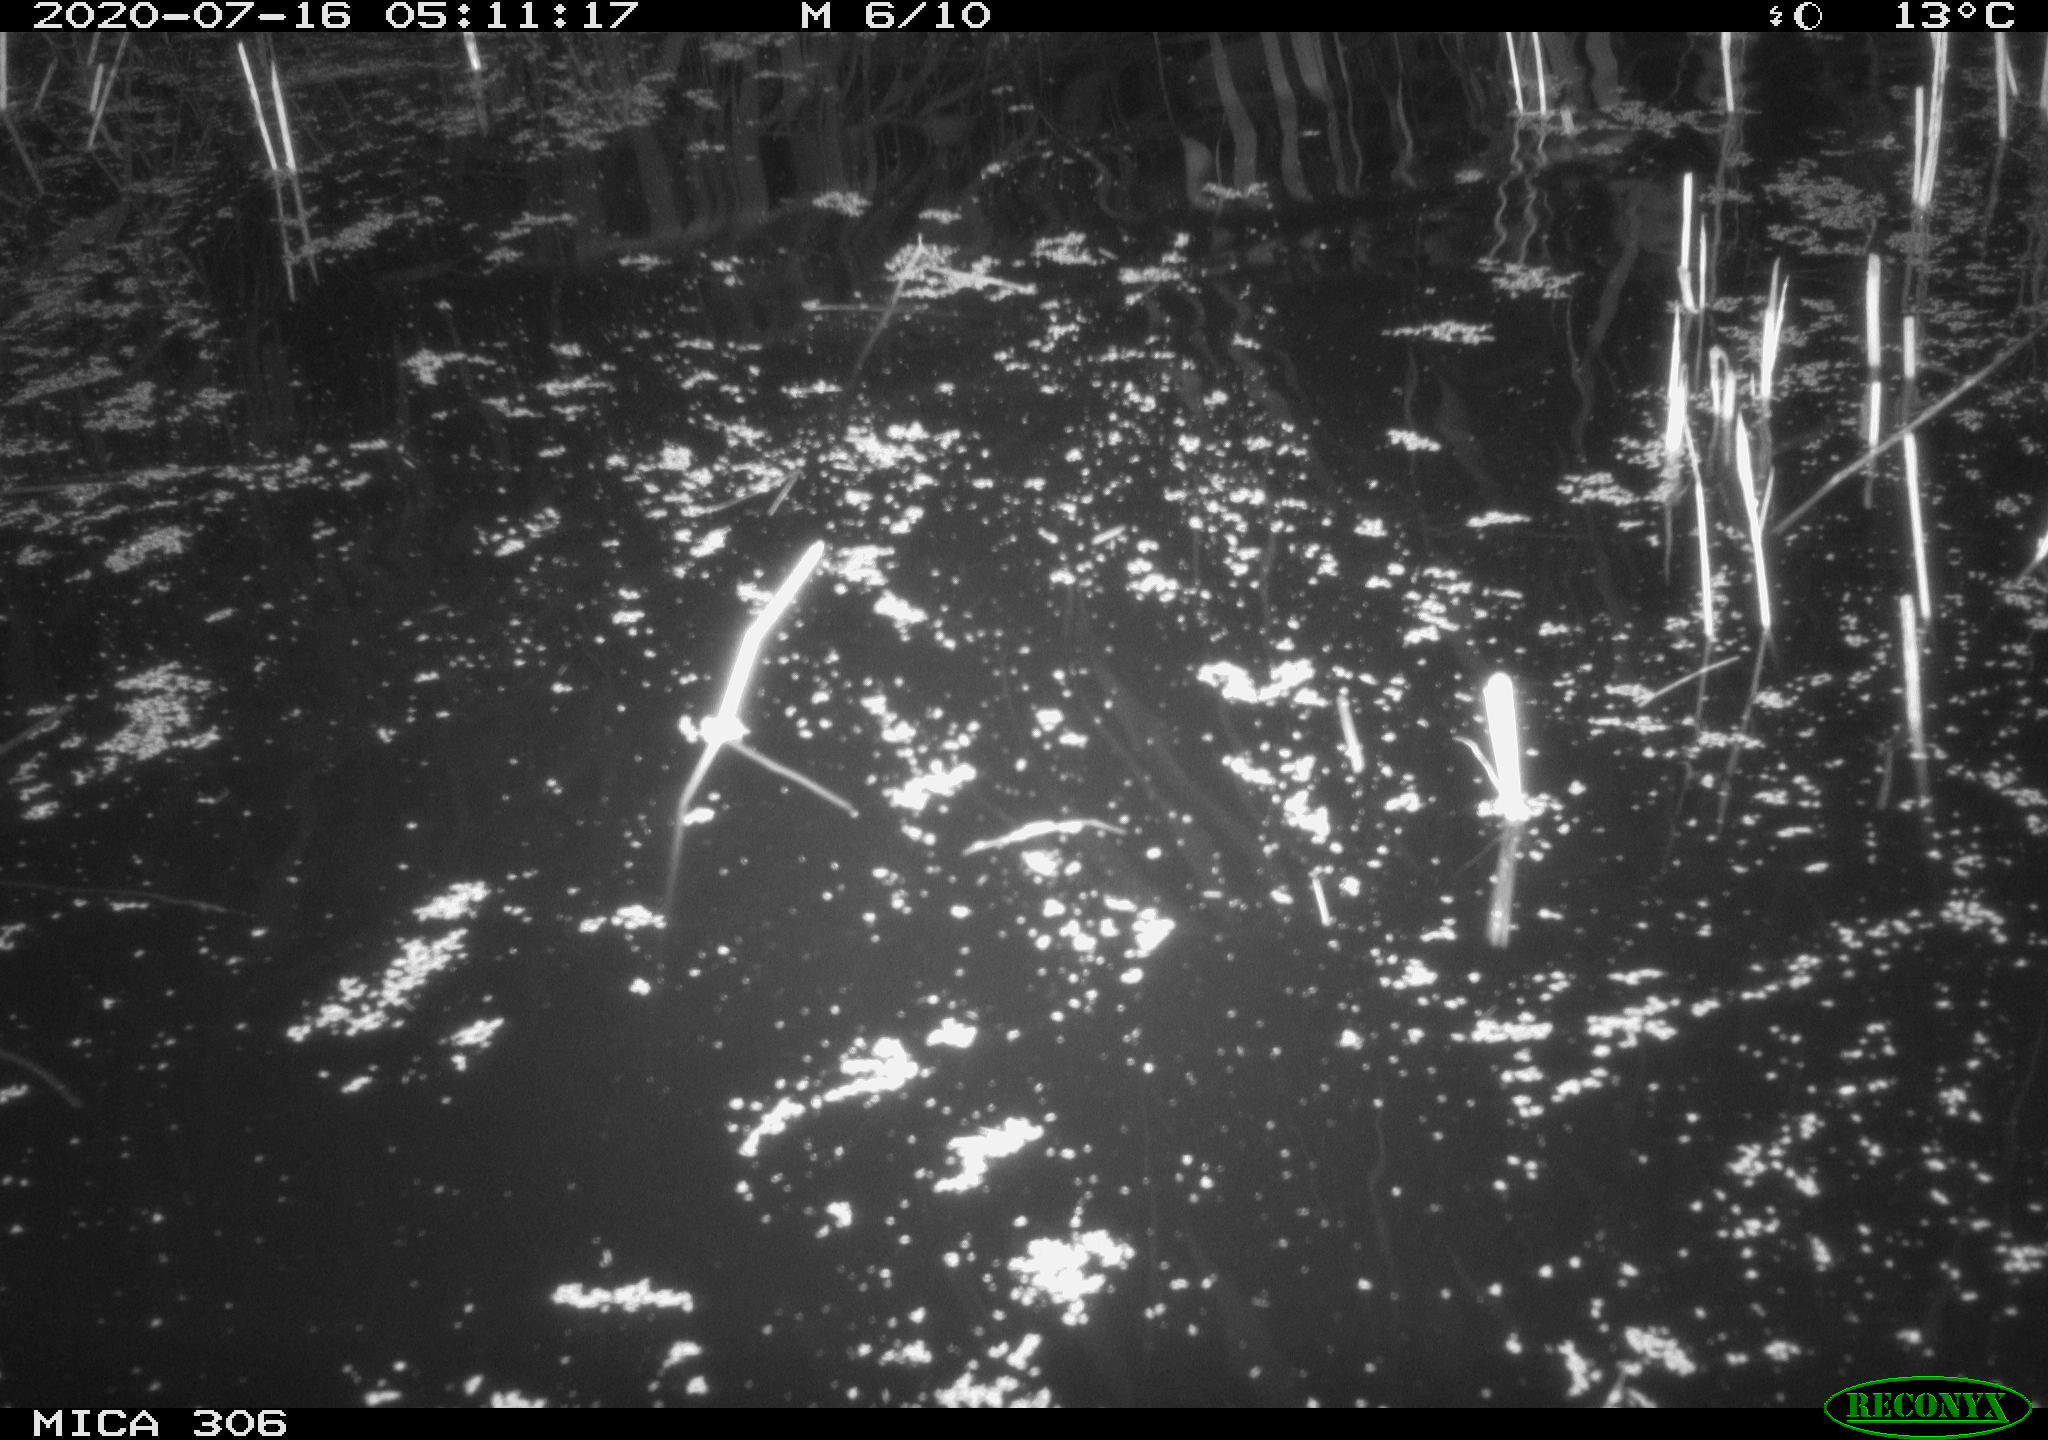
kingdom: Animalia
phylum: Chordata
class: Mammalia
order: Rodentia
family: Muridae
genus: Rattus
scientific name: Rattus norvegicus
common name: Brown rat
